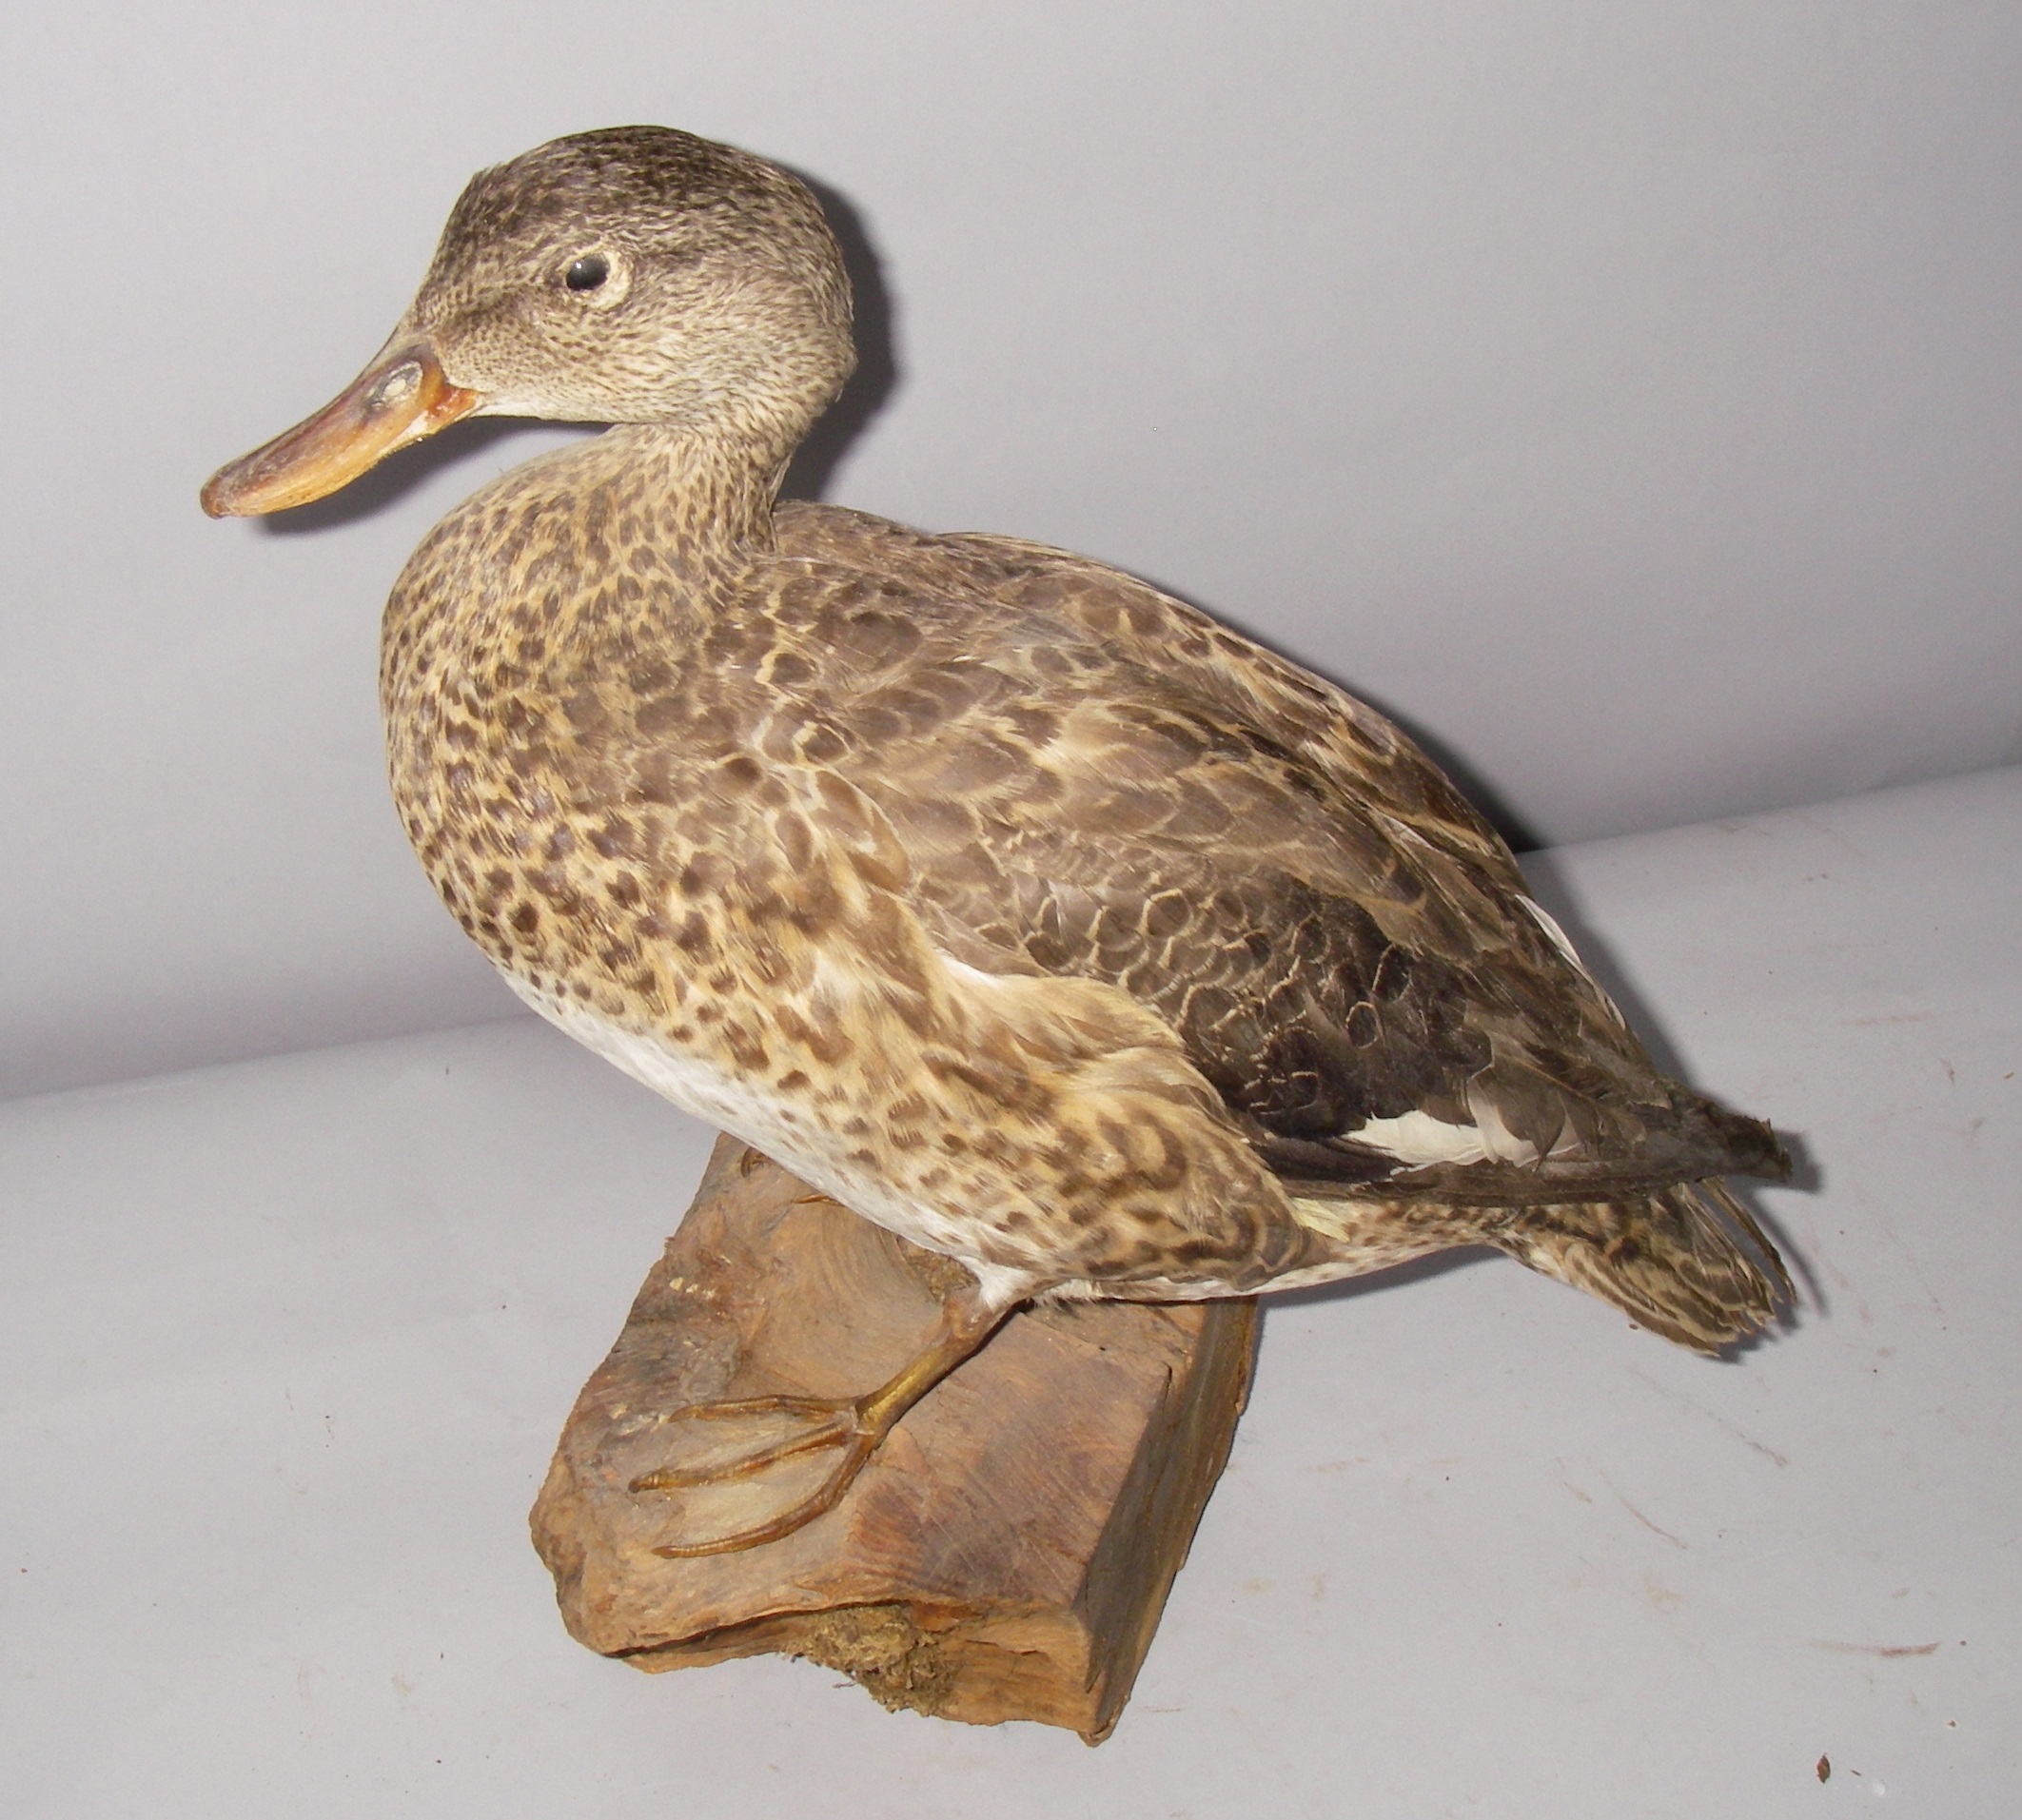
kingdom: Animalia
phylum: Chordata
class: Aves
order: Anseriformes
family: Anatidae
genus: Mareca
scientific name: Mareca strepera
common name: Gadwall
